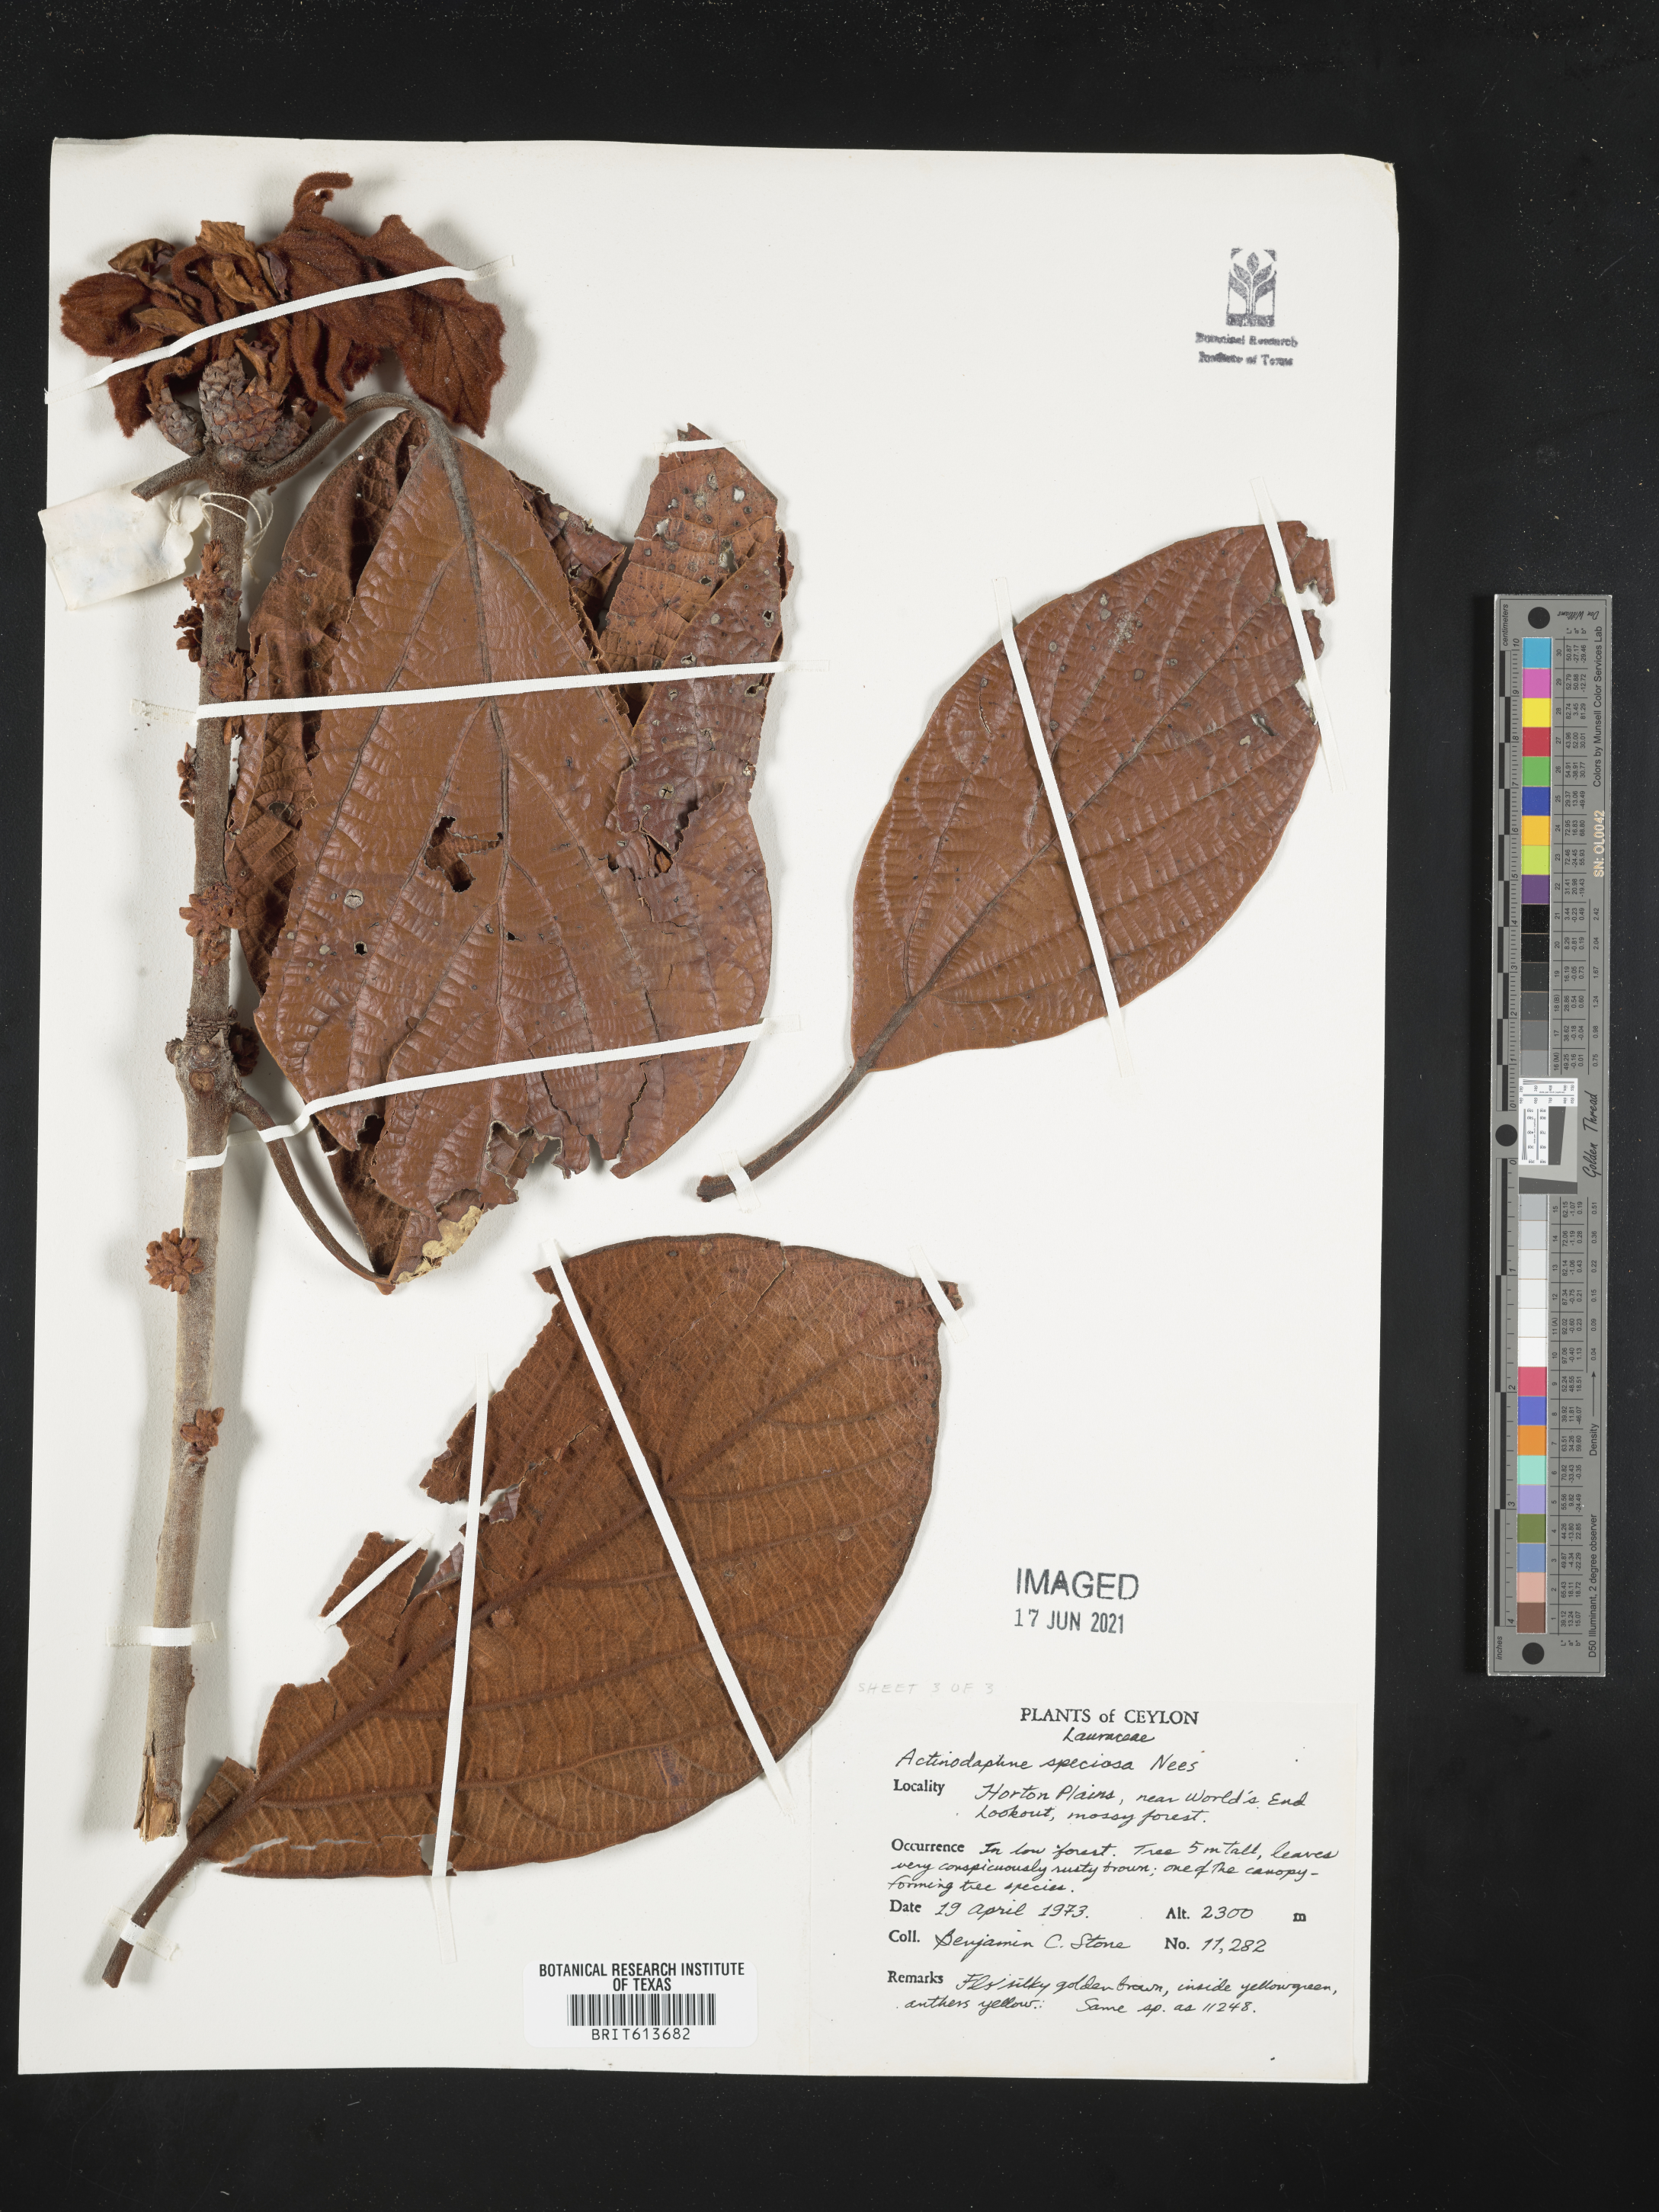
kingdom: Plantae
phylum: Tracheophyta
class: Magnoliopsida
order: Laurales
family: Lauraceae
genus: Actinodaphne
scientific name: Actinodaphne speciosa
